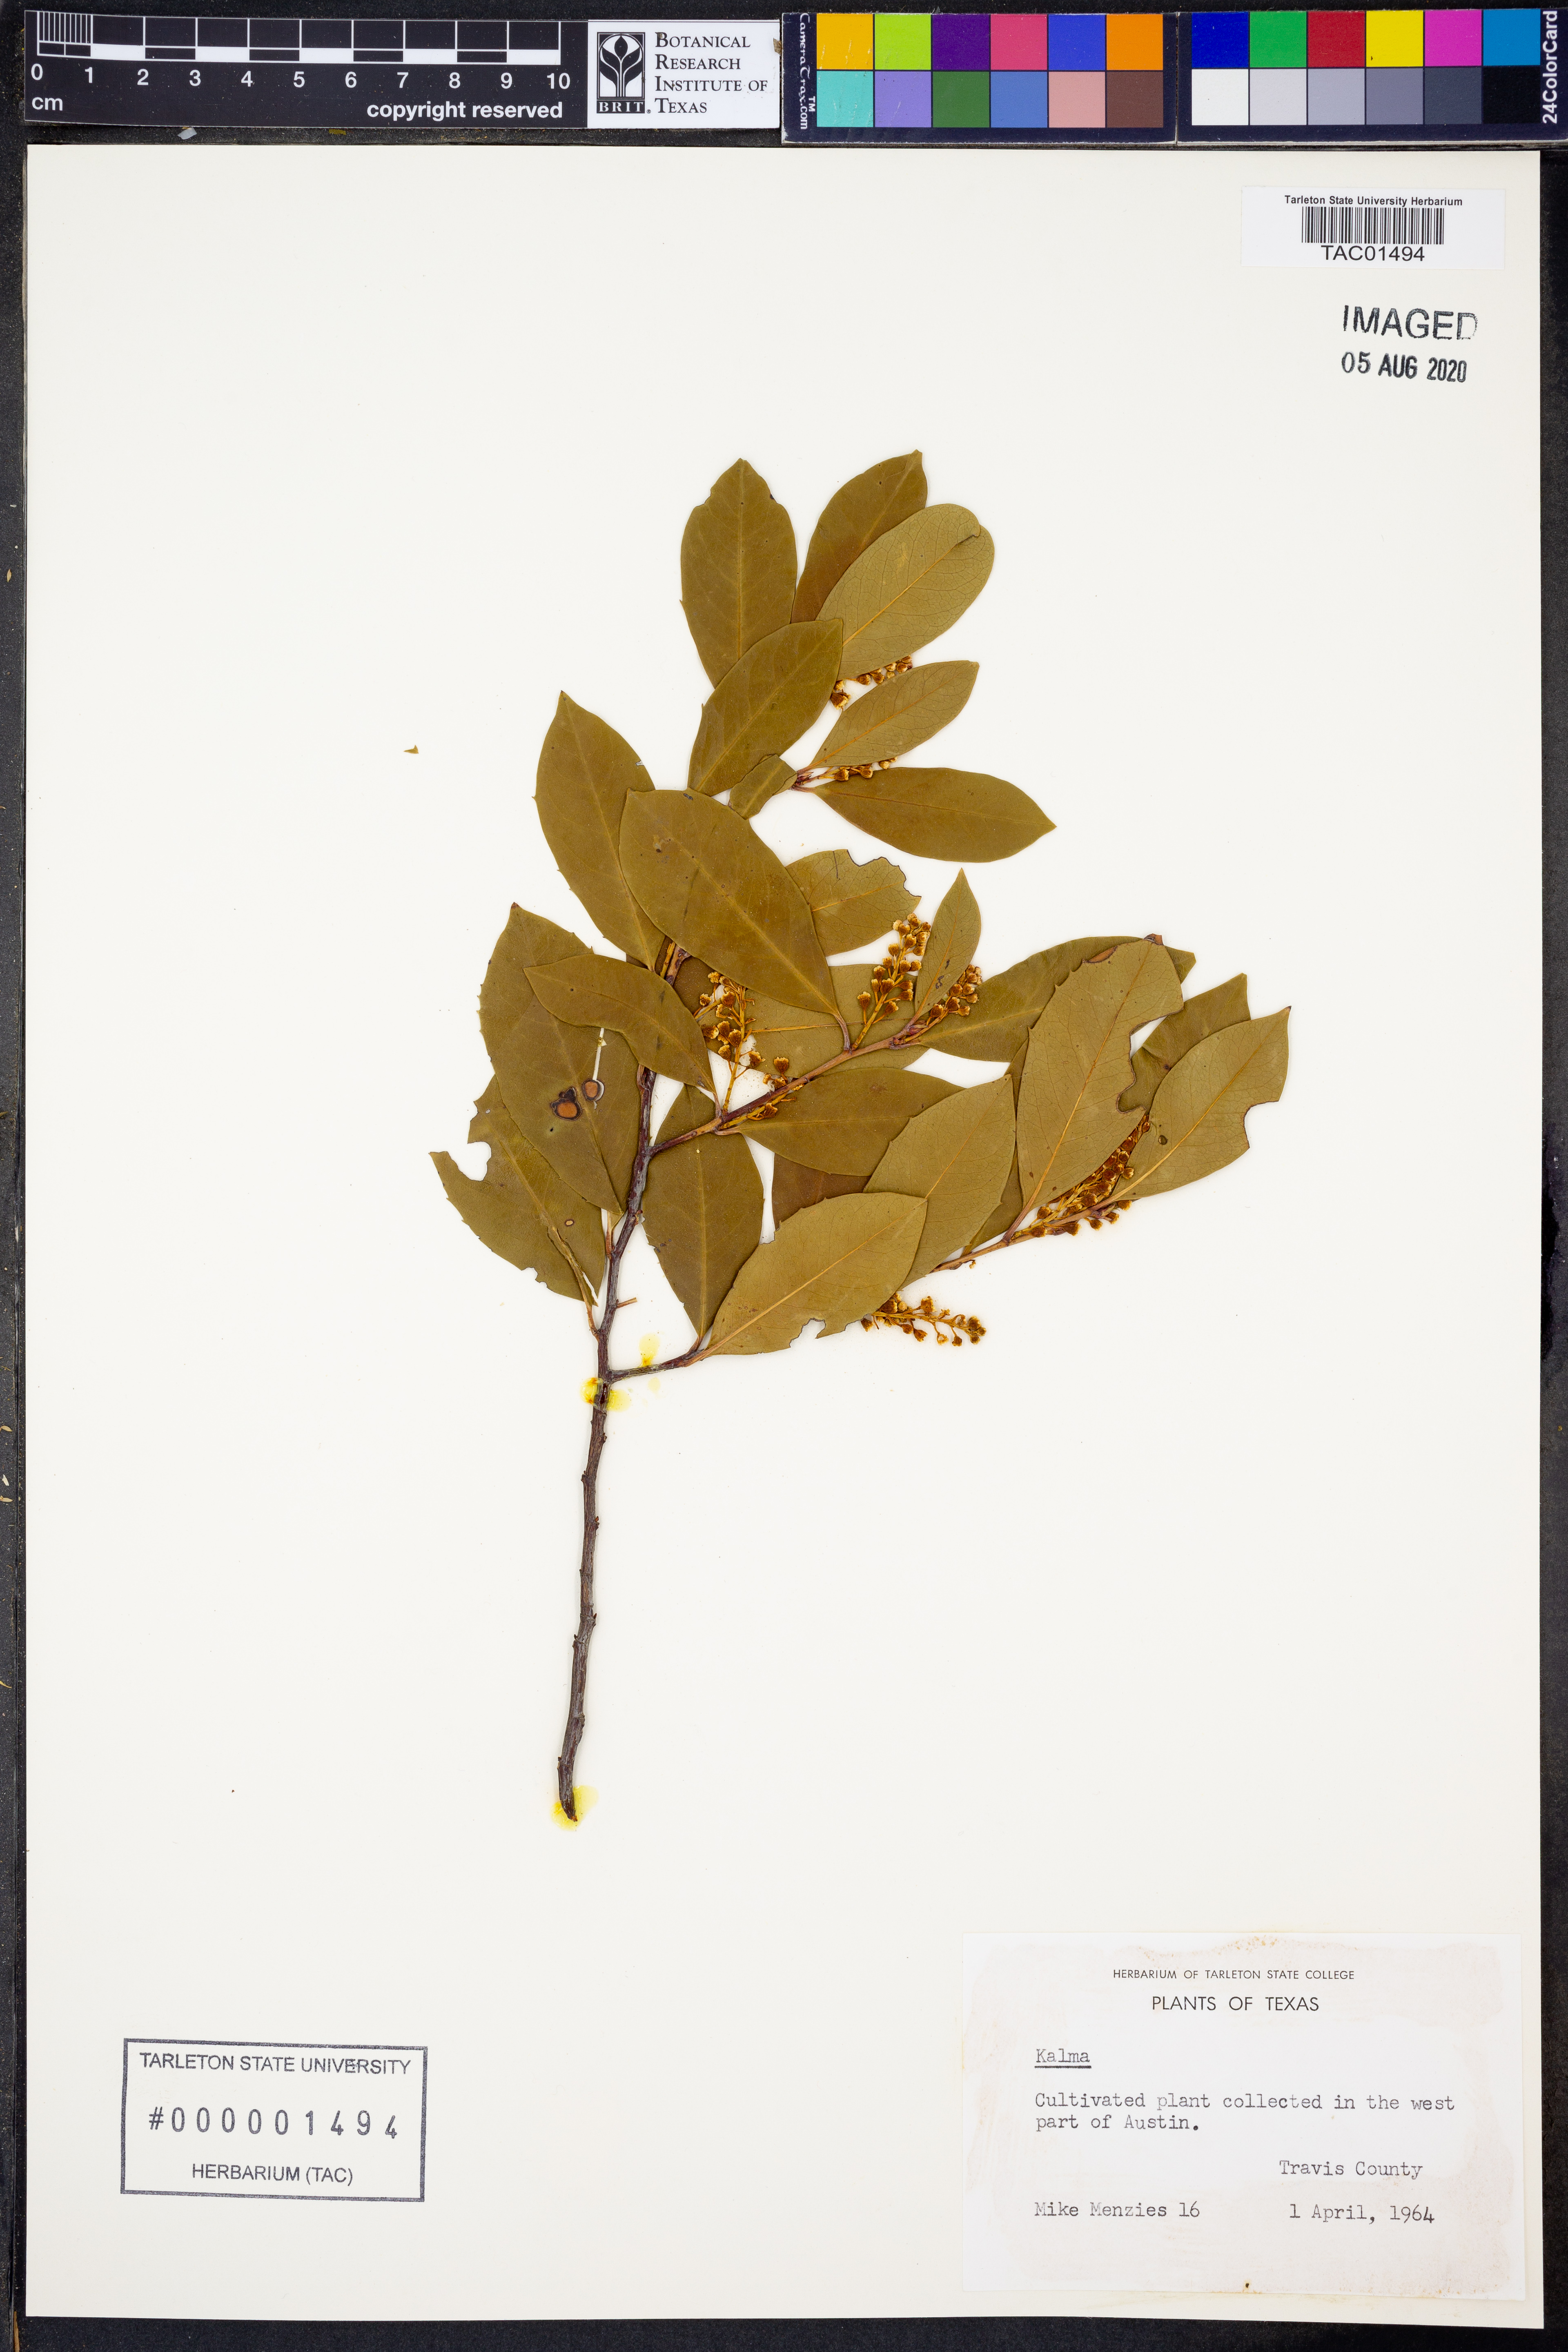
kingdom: Plantae
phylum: Tracheophyta
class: Magnoliopsida
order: Ericales
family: Ericaceae
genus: Kalmia
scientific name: Kalmia
